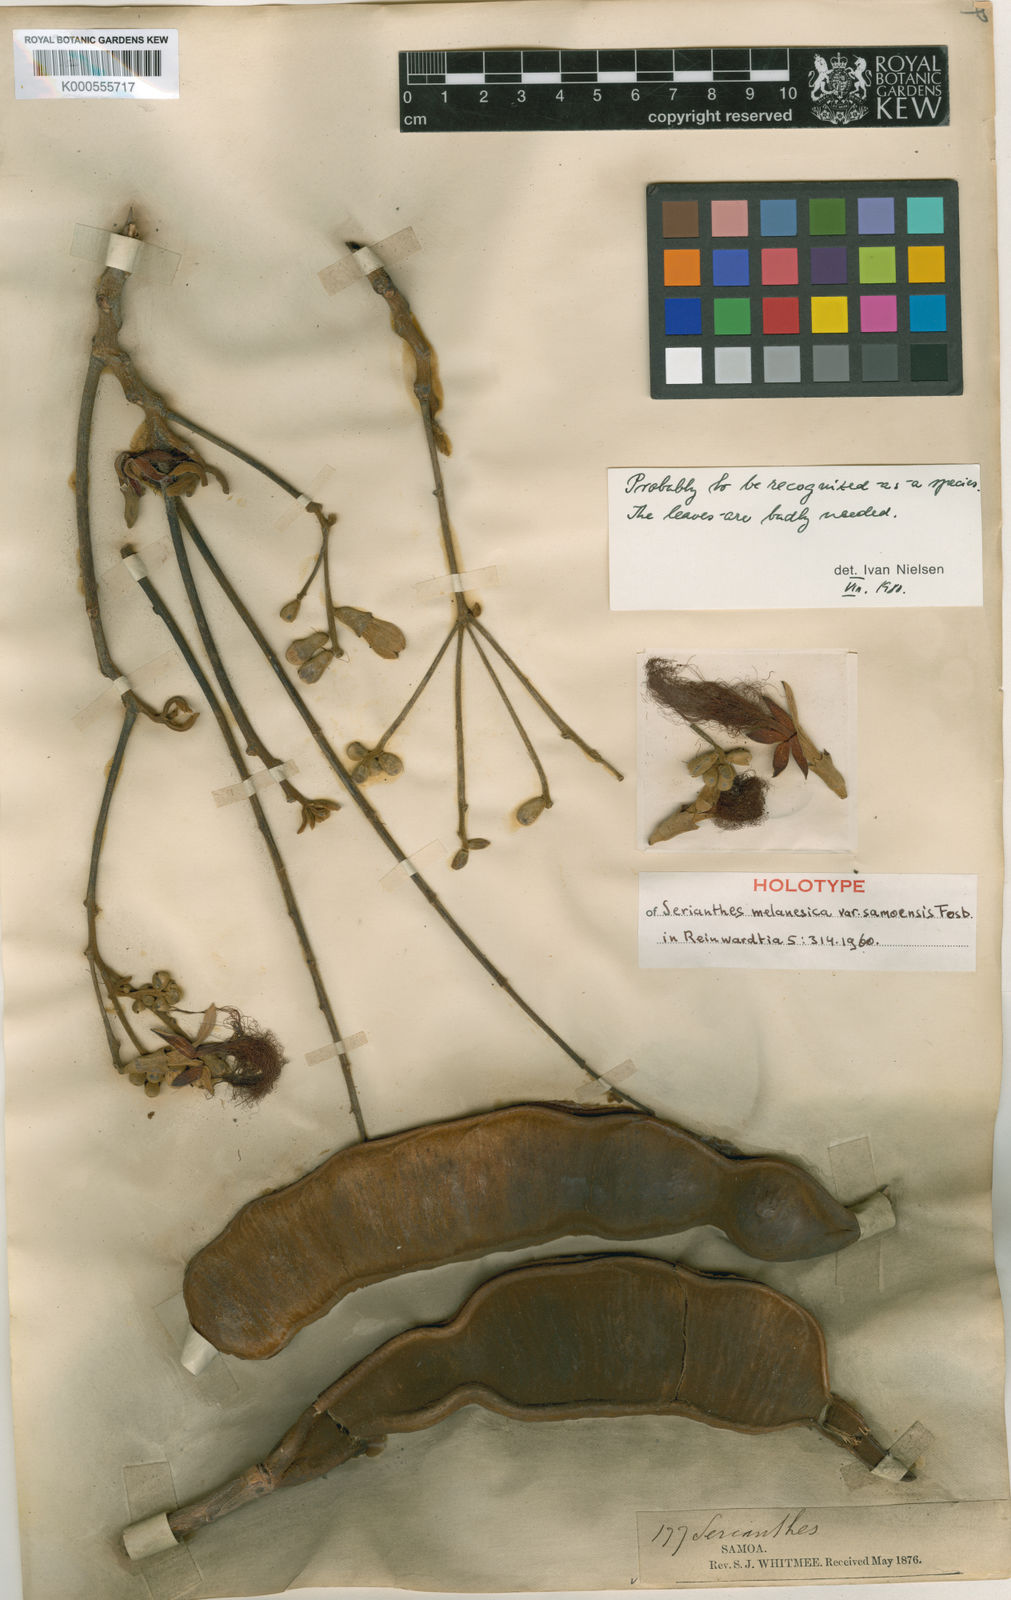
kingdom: Plantae
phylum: Tracheophyta
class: Magnoliopsida
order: Fabales
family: Fabaceae
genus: Serianthes
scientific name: Serianthes melanesica
